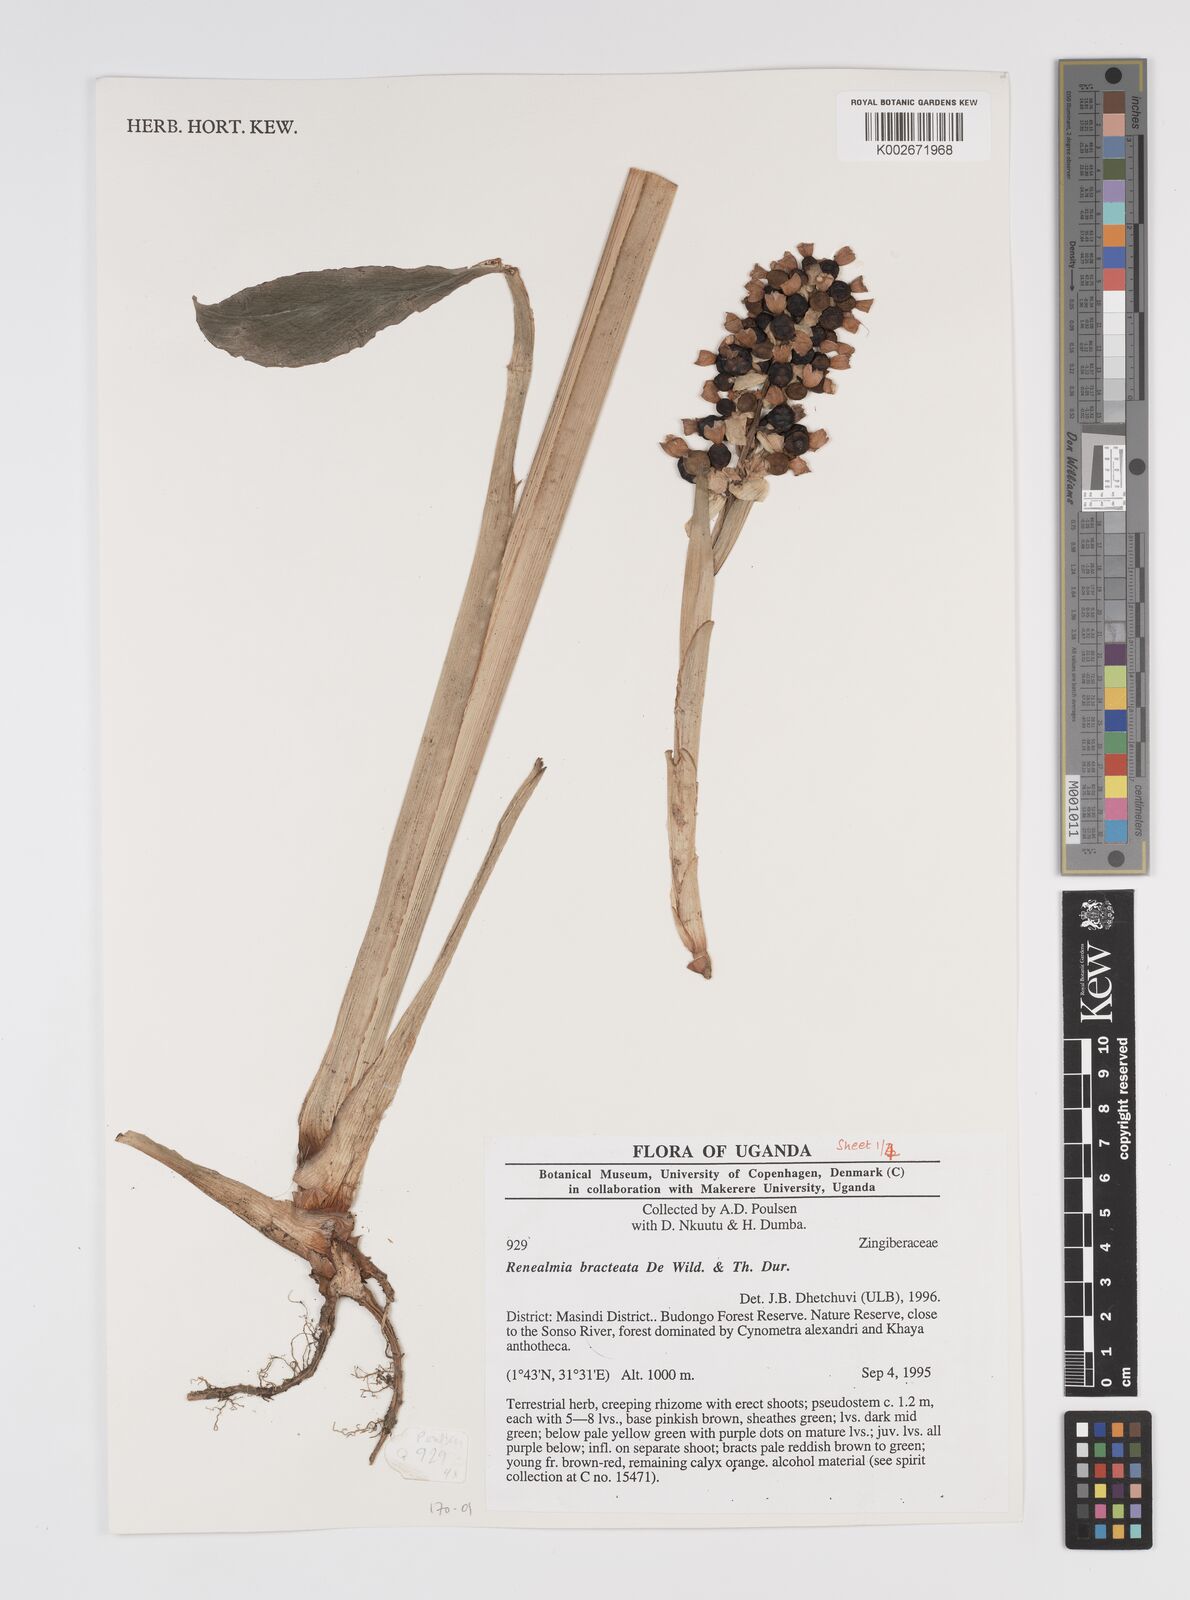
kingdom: Plantae
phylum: Tracheophyta
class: Liliopsida
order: Zingiberales
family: Zingiberaceae
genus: Renealmia
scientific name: Renealmia bracteata
